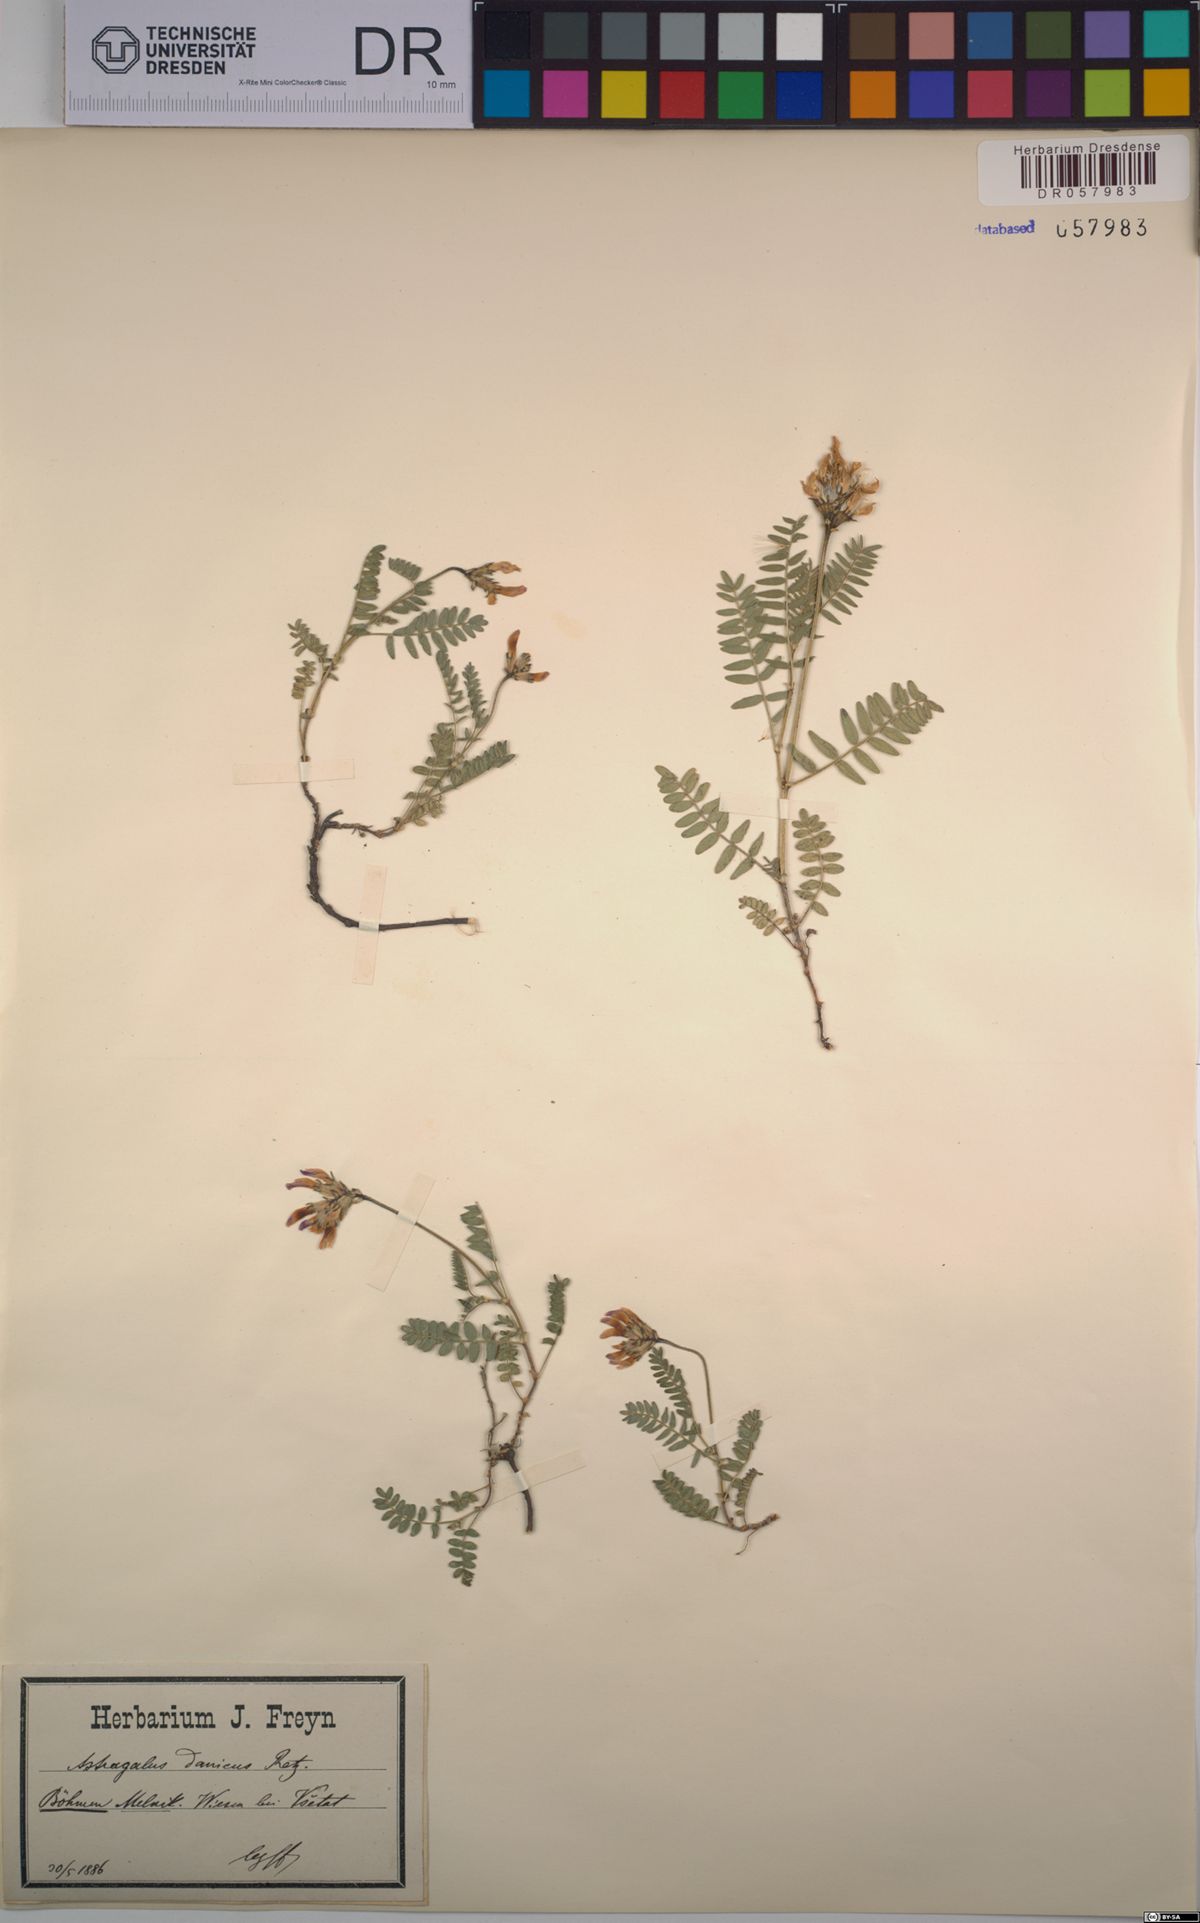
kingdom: Plantae
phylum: Tracheophyta
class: Magnoliopsida
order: Fabales
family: Fabaceae
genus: Astragalus
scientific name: Astragalus danicus
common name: Purple milk-vetch
